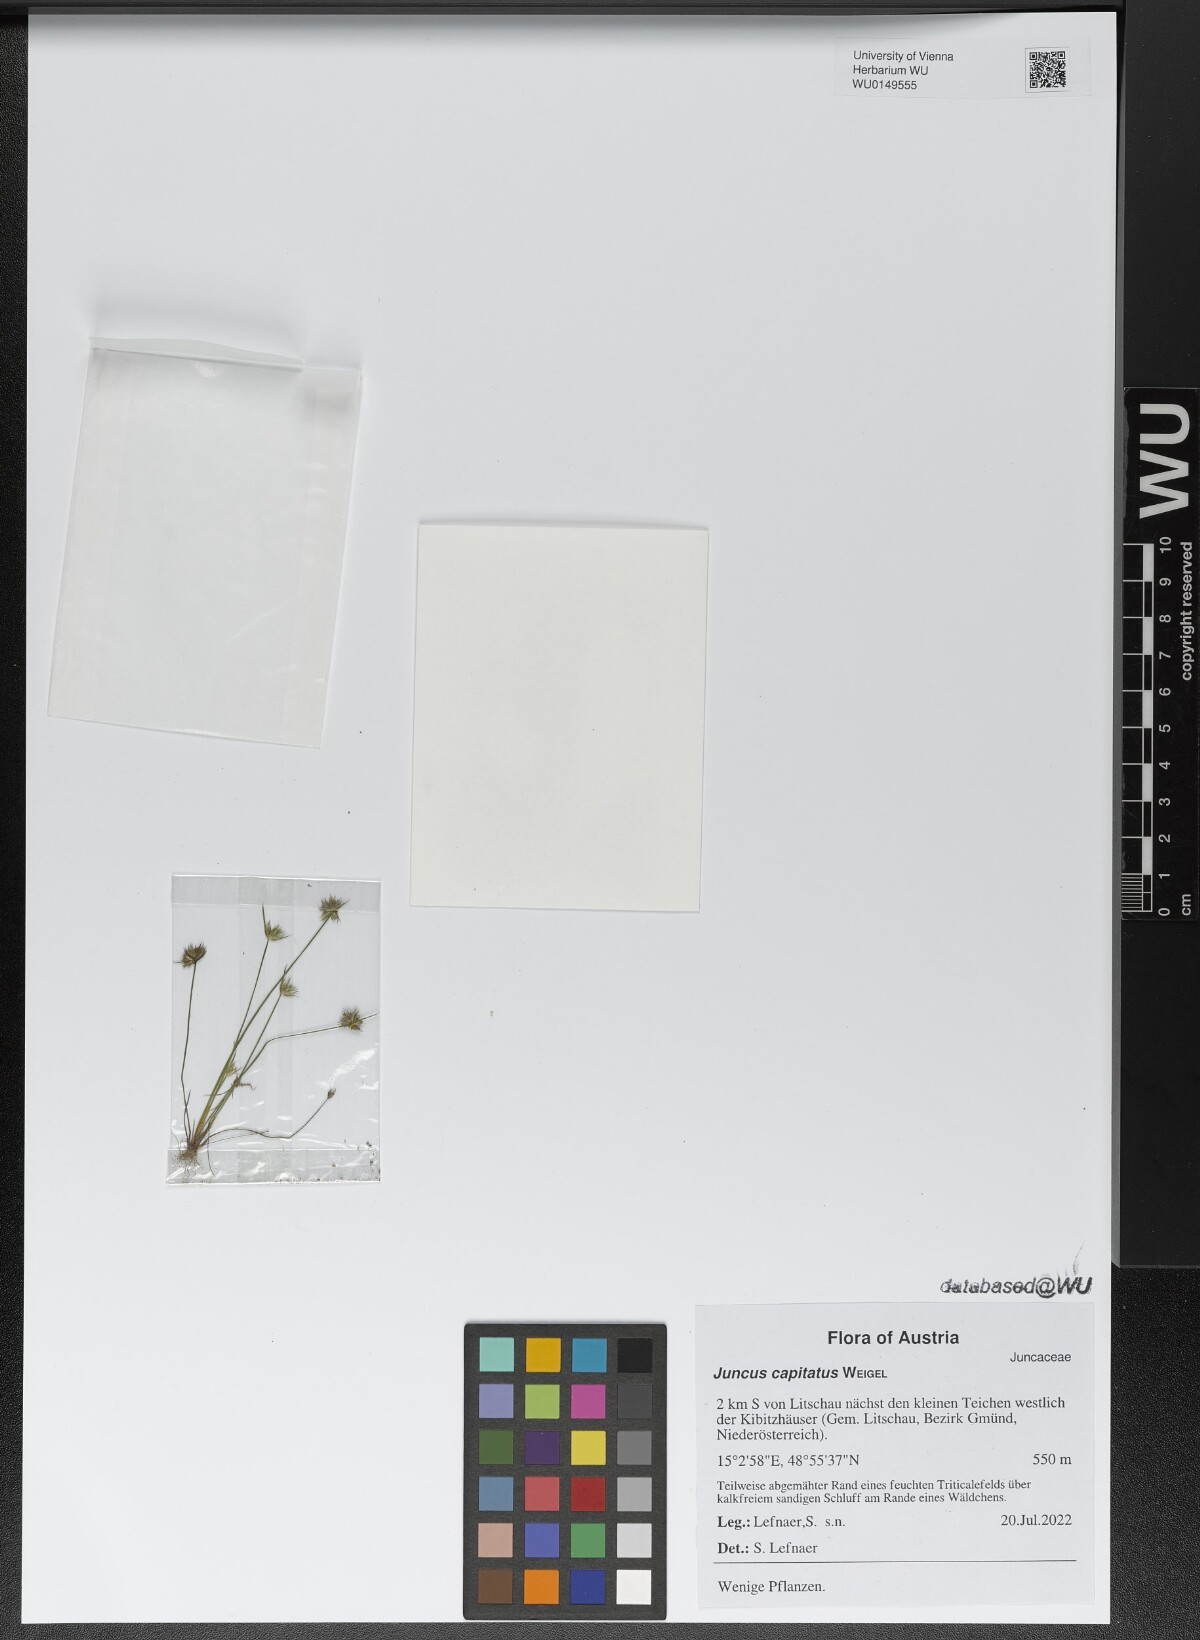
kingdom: Plantae
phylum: Tracheophyta
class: Liliopsida
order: Poales
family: Juncaceae
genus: Juncus
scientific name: Juncus capitatus
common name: Dwarf rush
